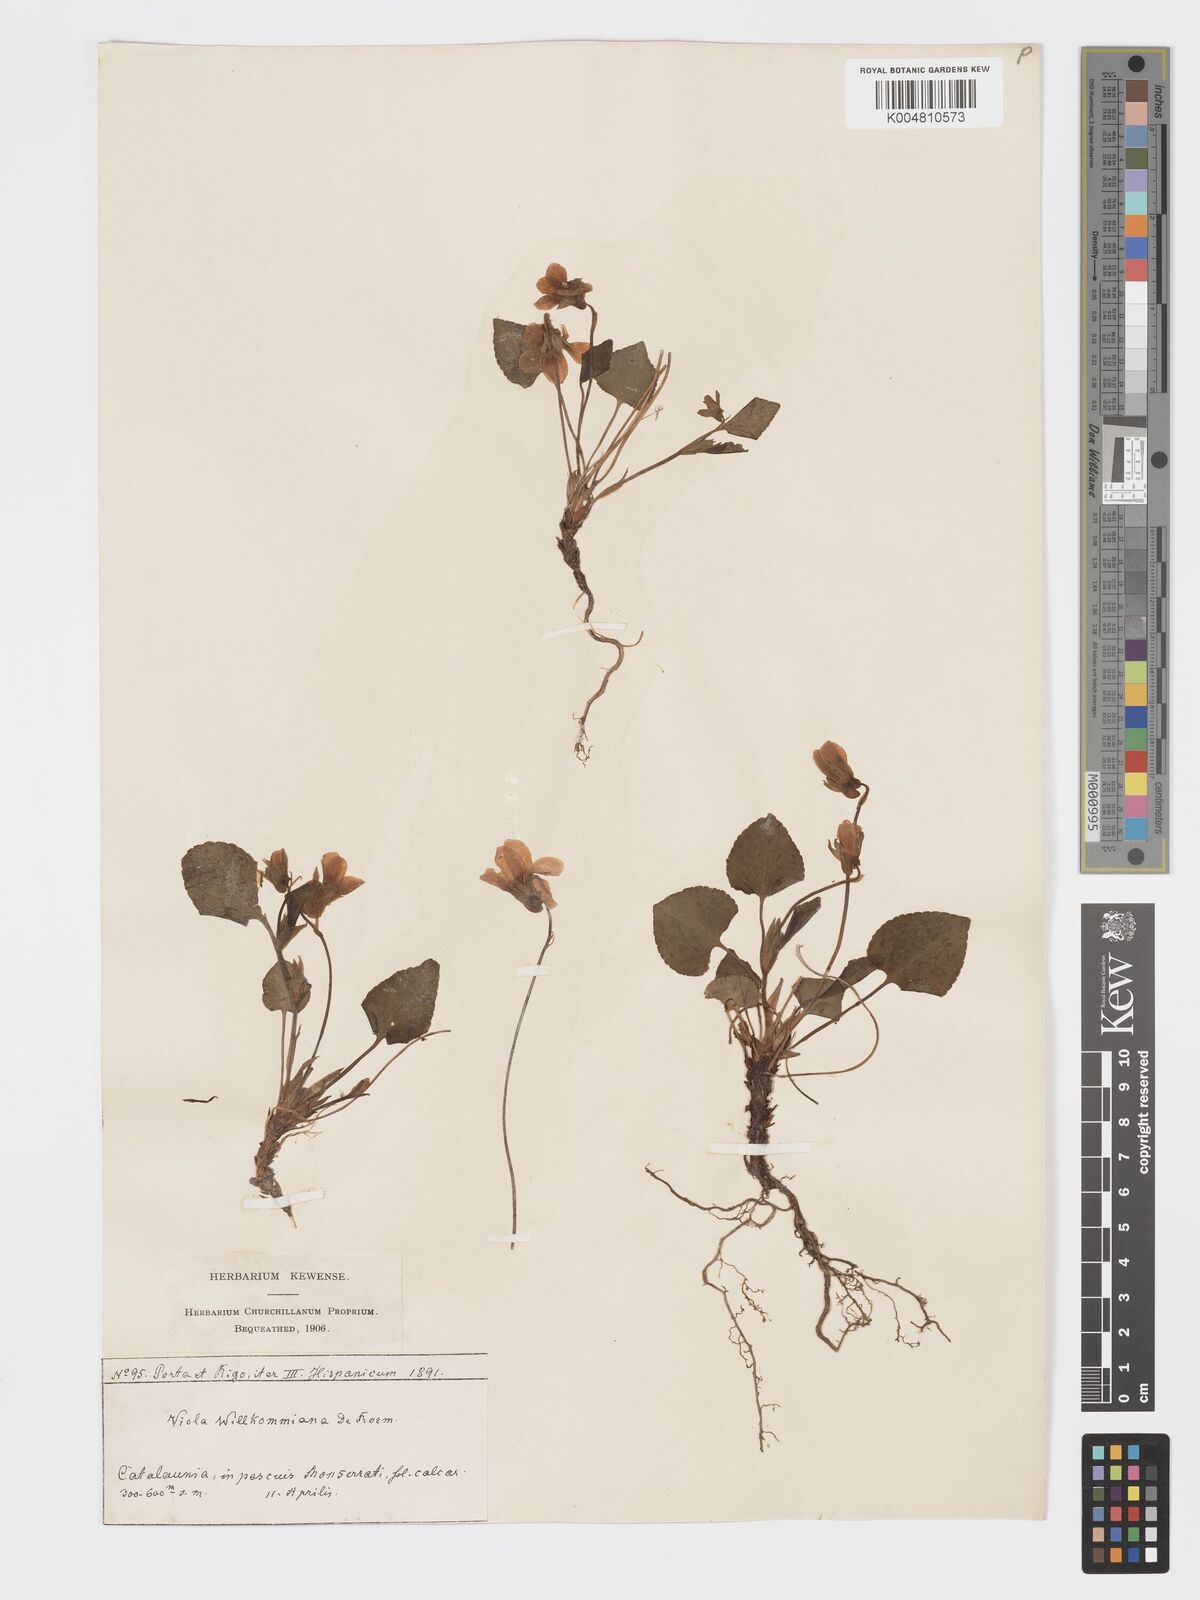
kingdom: Plantae
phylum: Tracheophyta
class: Magnoliopsida
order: Malpighiales
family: Violaceae
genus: Viola
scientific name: Viola mirabilis
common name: Wonder violet
